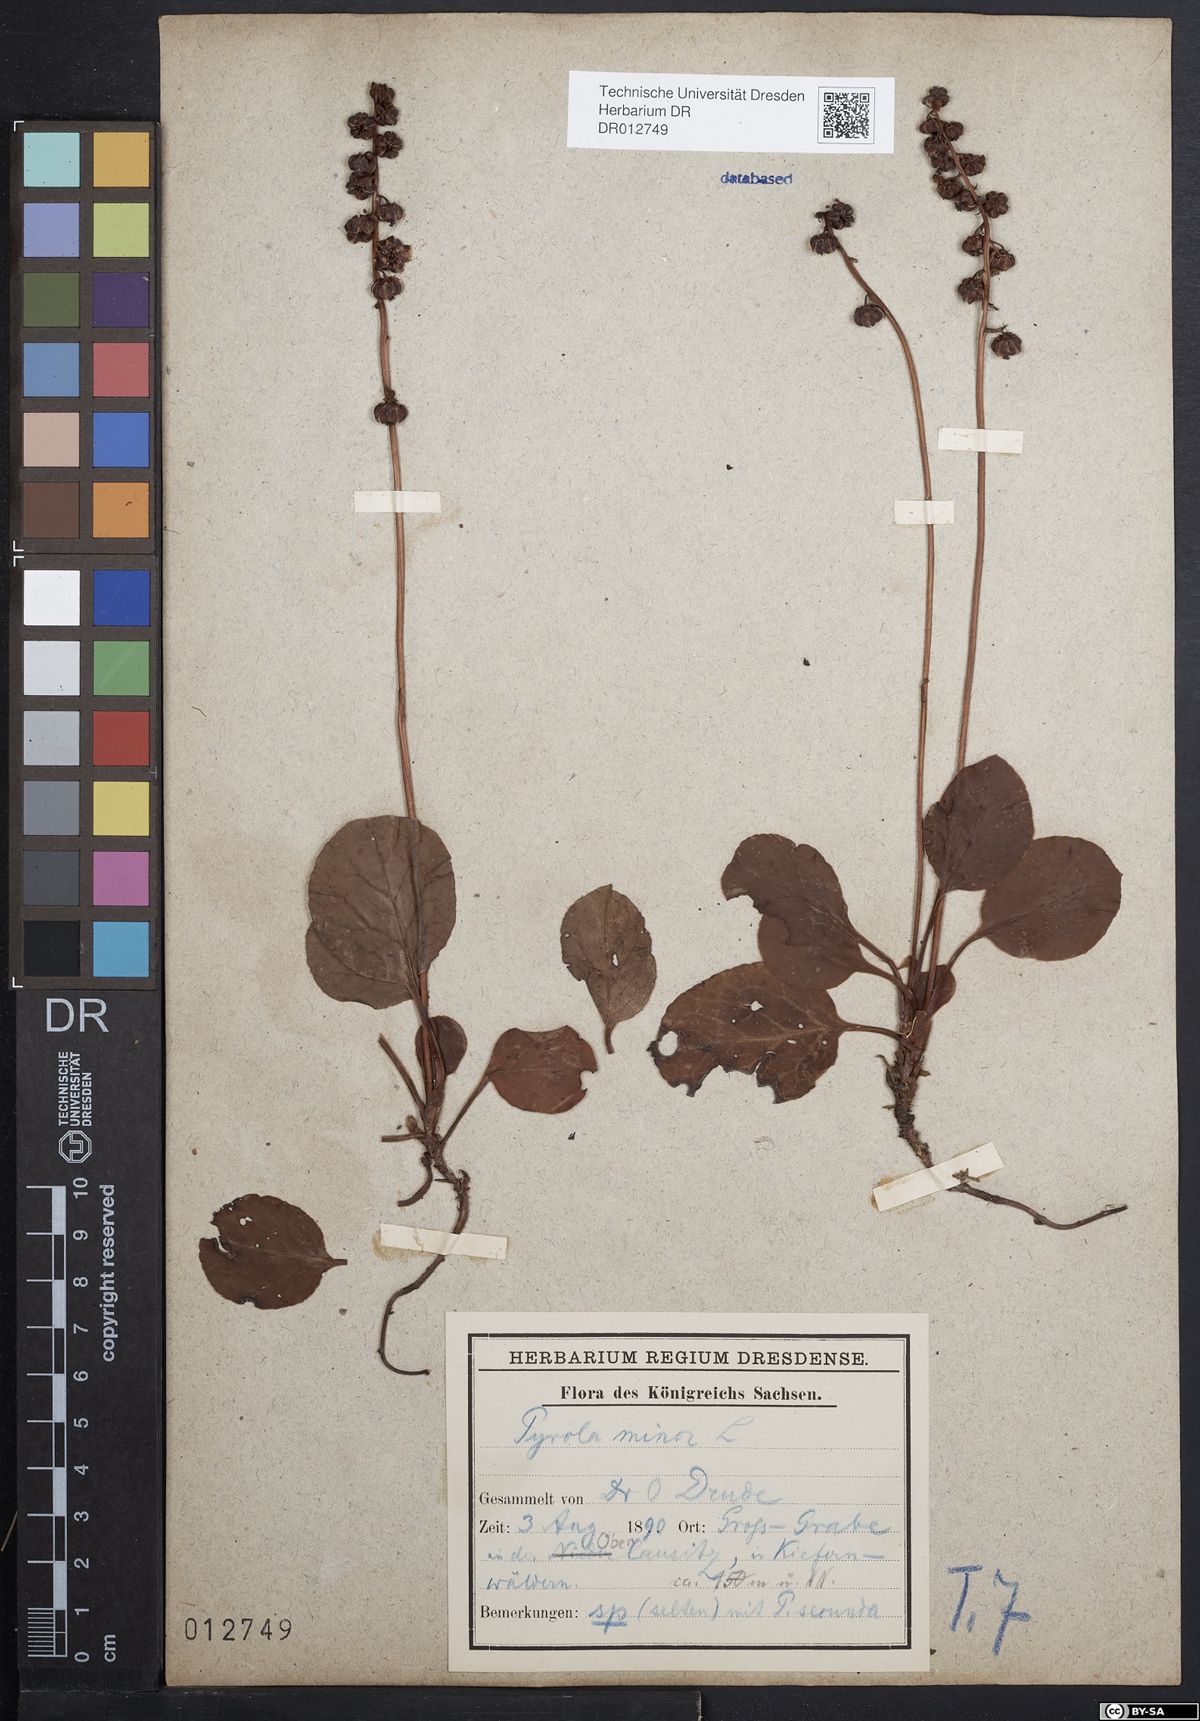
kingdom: Plantae
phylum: Tracheophyta
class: Magnoliopsida
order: Ericales
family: Ericaceae
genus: Pyrola
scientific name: Pyrola minor
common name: Common wintergreen
